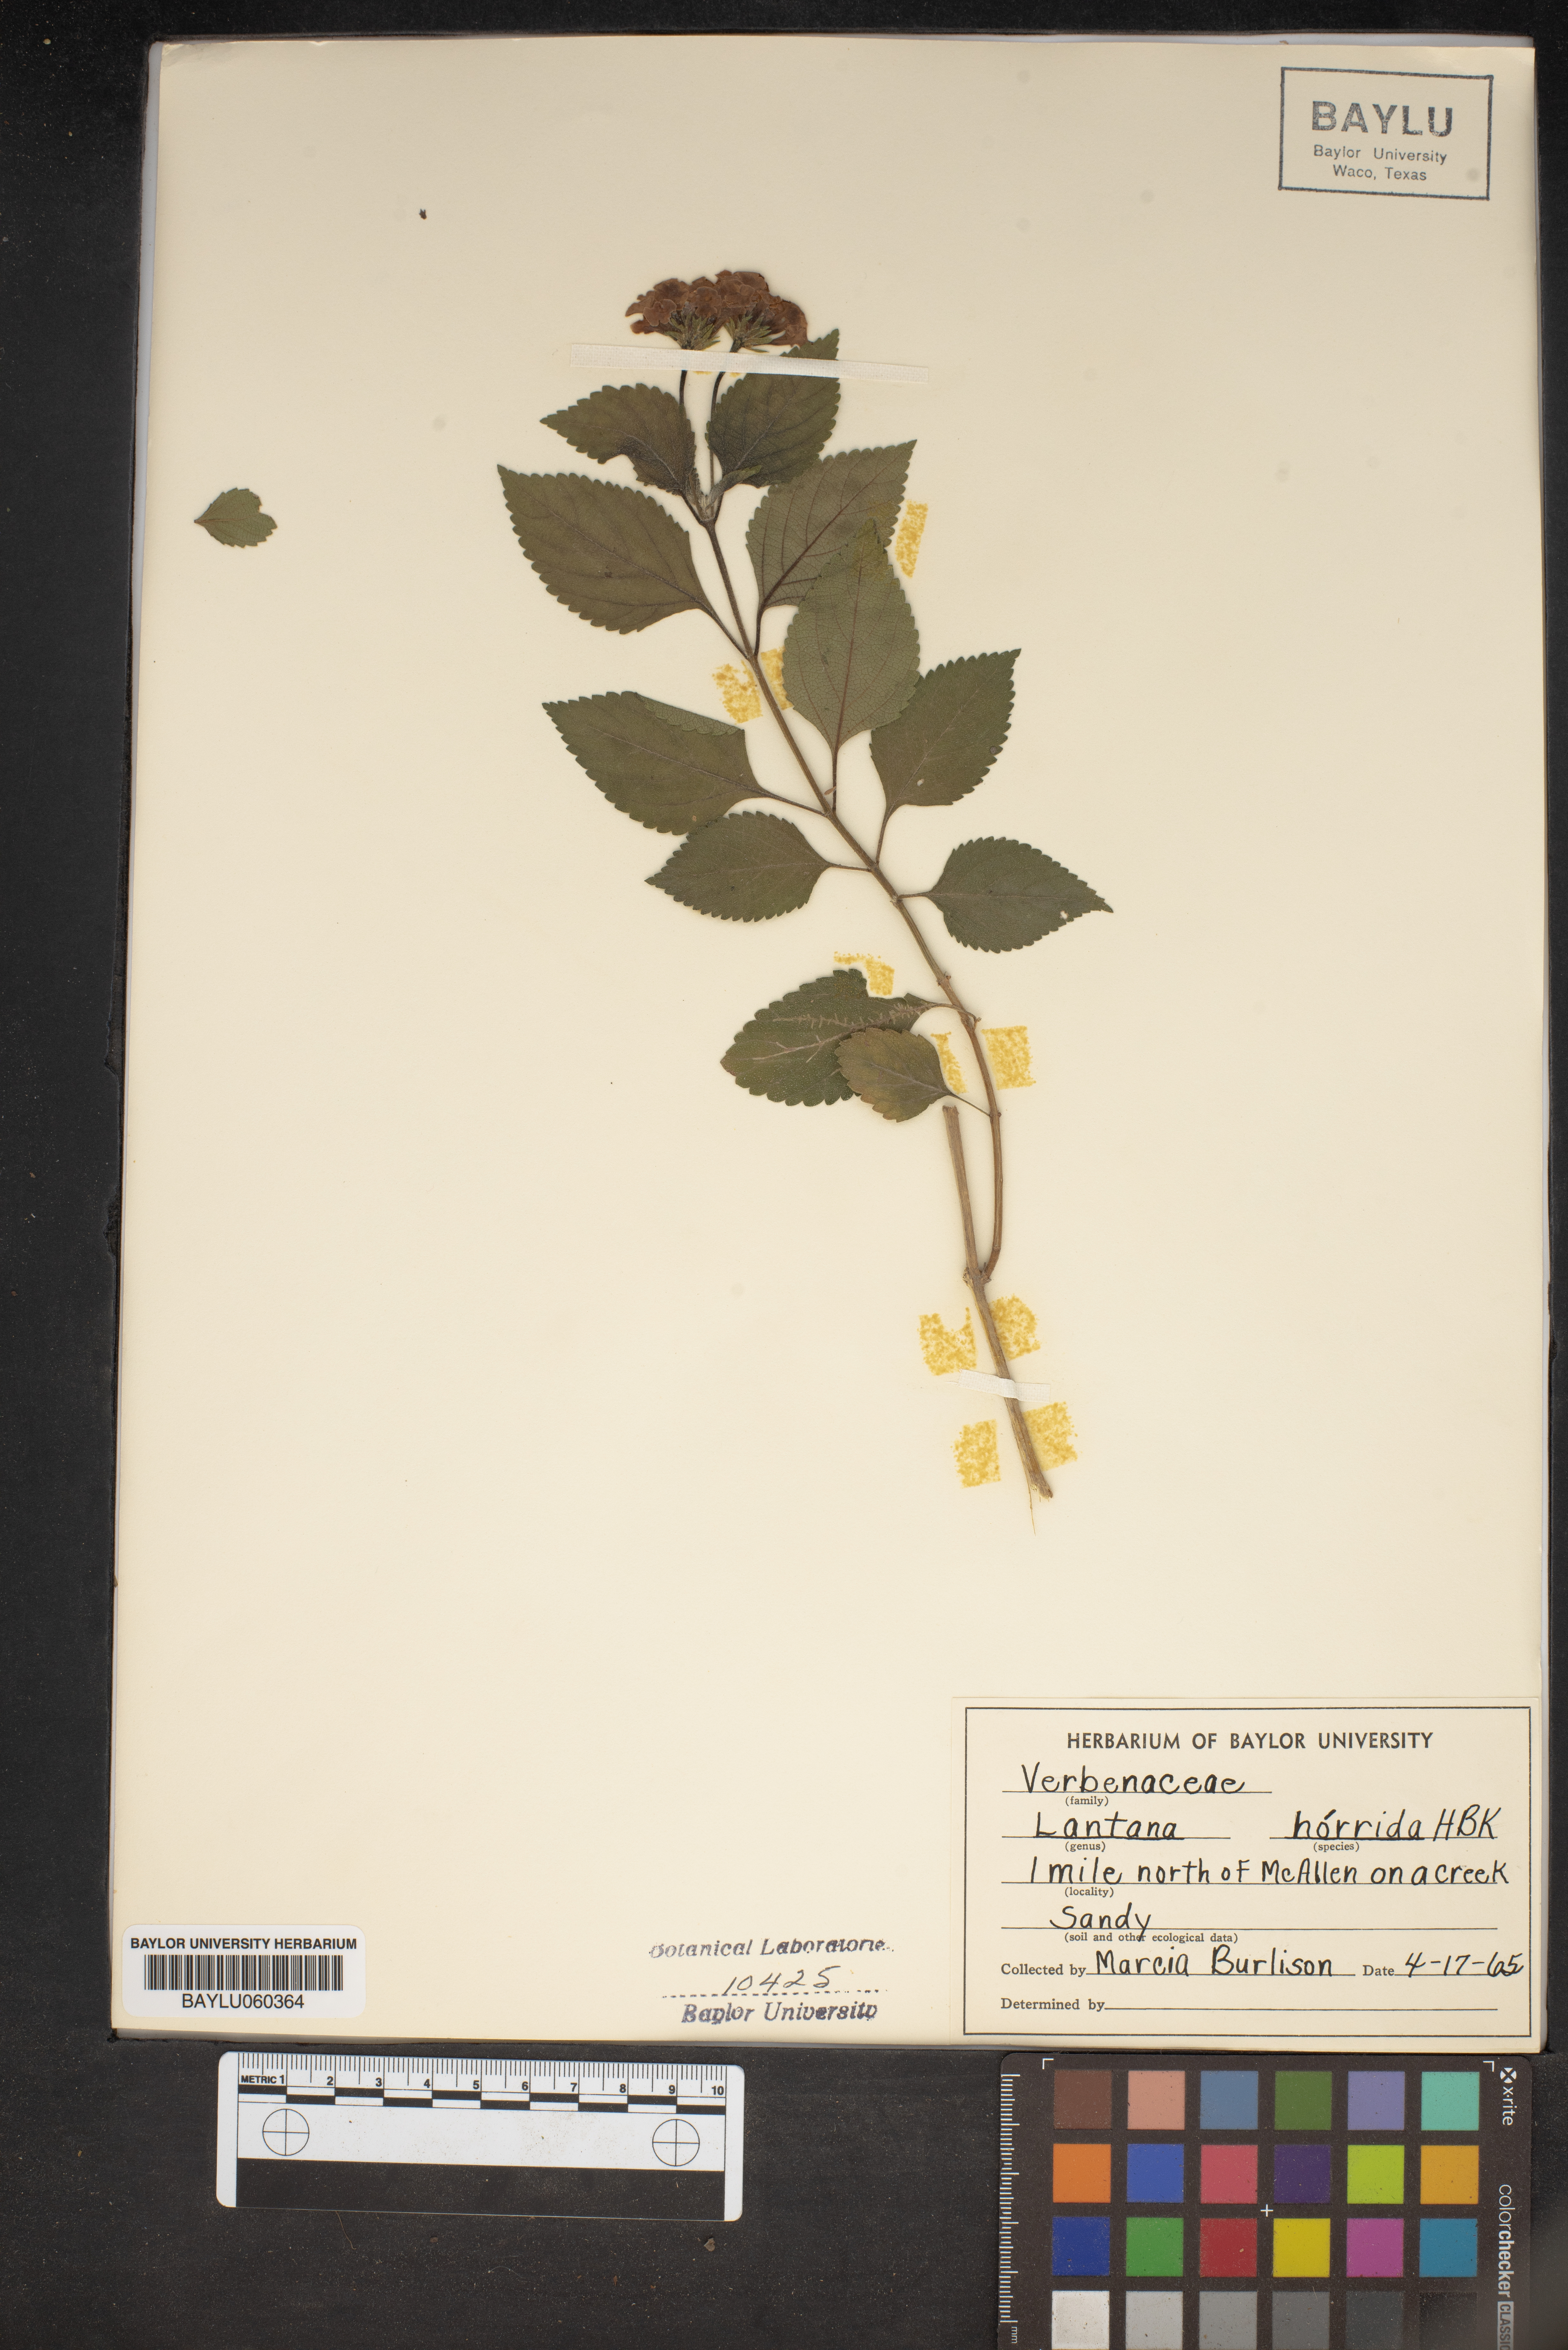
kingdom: Plantae
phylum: Tracheophyta
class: Magnoliopsida
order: Lamiales
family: Verbenaceae
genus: Lantana
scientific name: Lantana horrida
